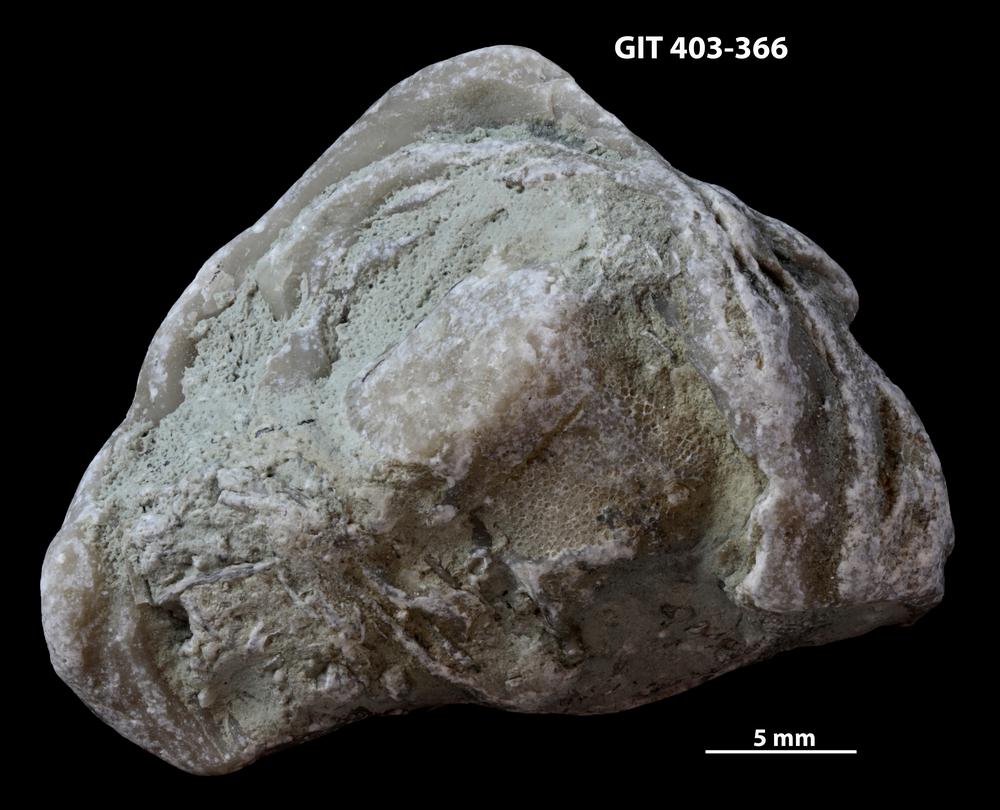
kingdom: Animalia
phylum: Bryozoa
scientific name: Bryozoa
